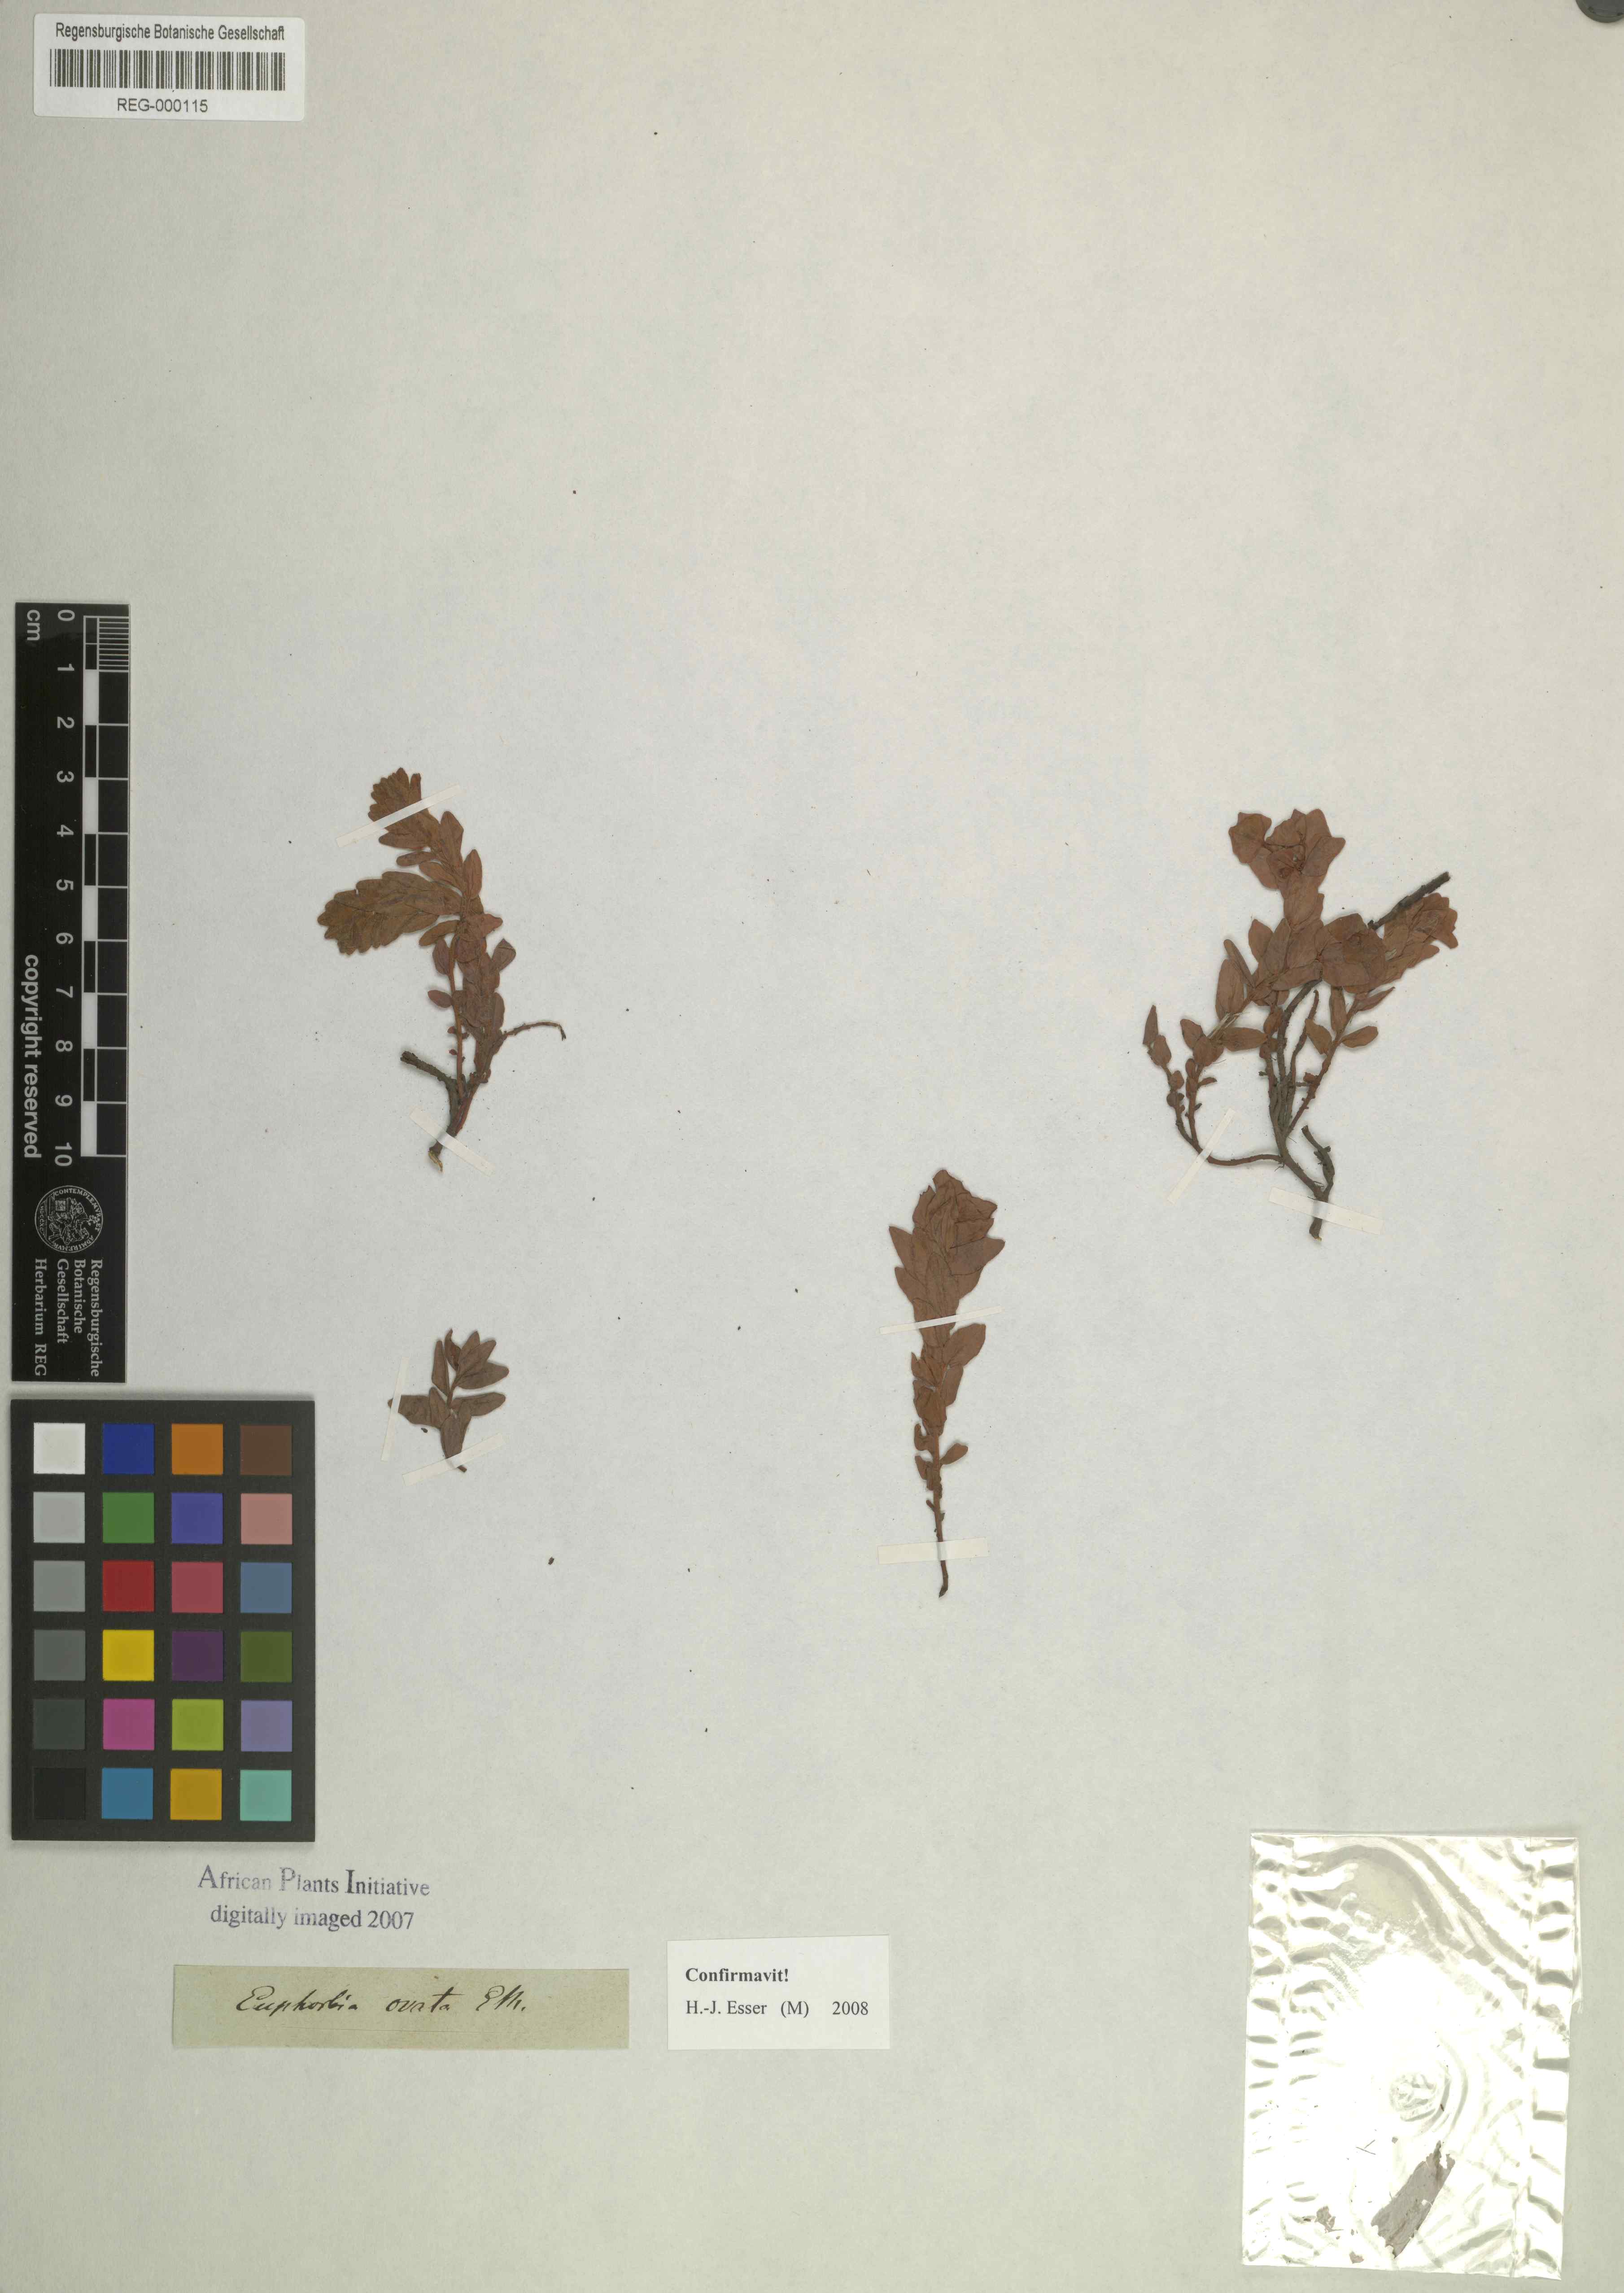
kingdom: Plantae
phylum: Tracheophyta
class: Magnoliopsida
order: Malpighiales
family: Euphorbiaceae
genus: Euphorbia
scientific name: Euphorbia sclerophylla
